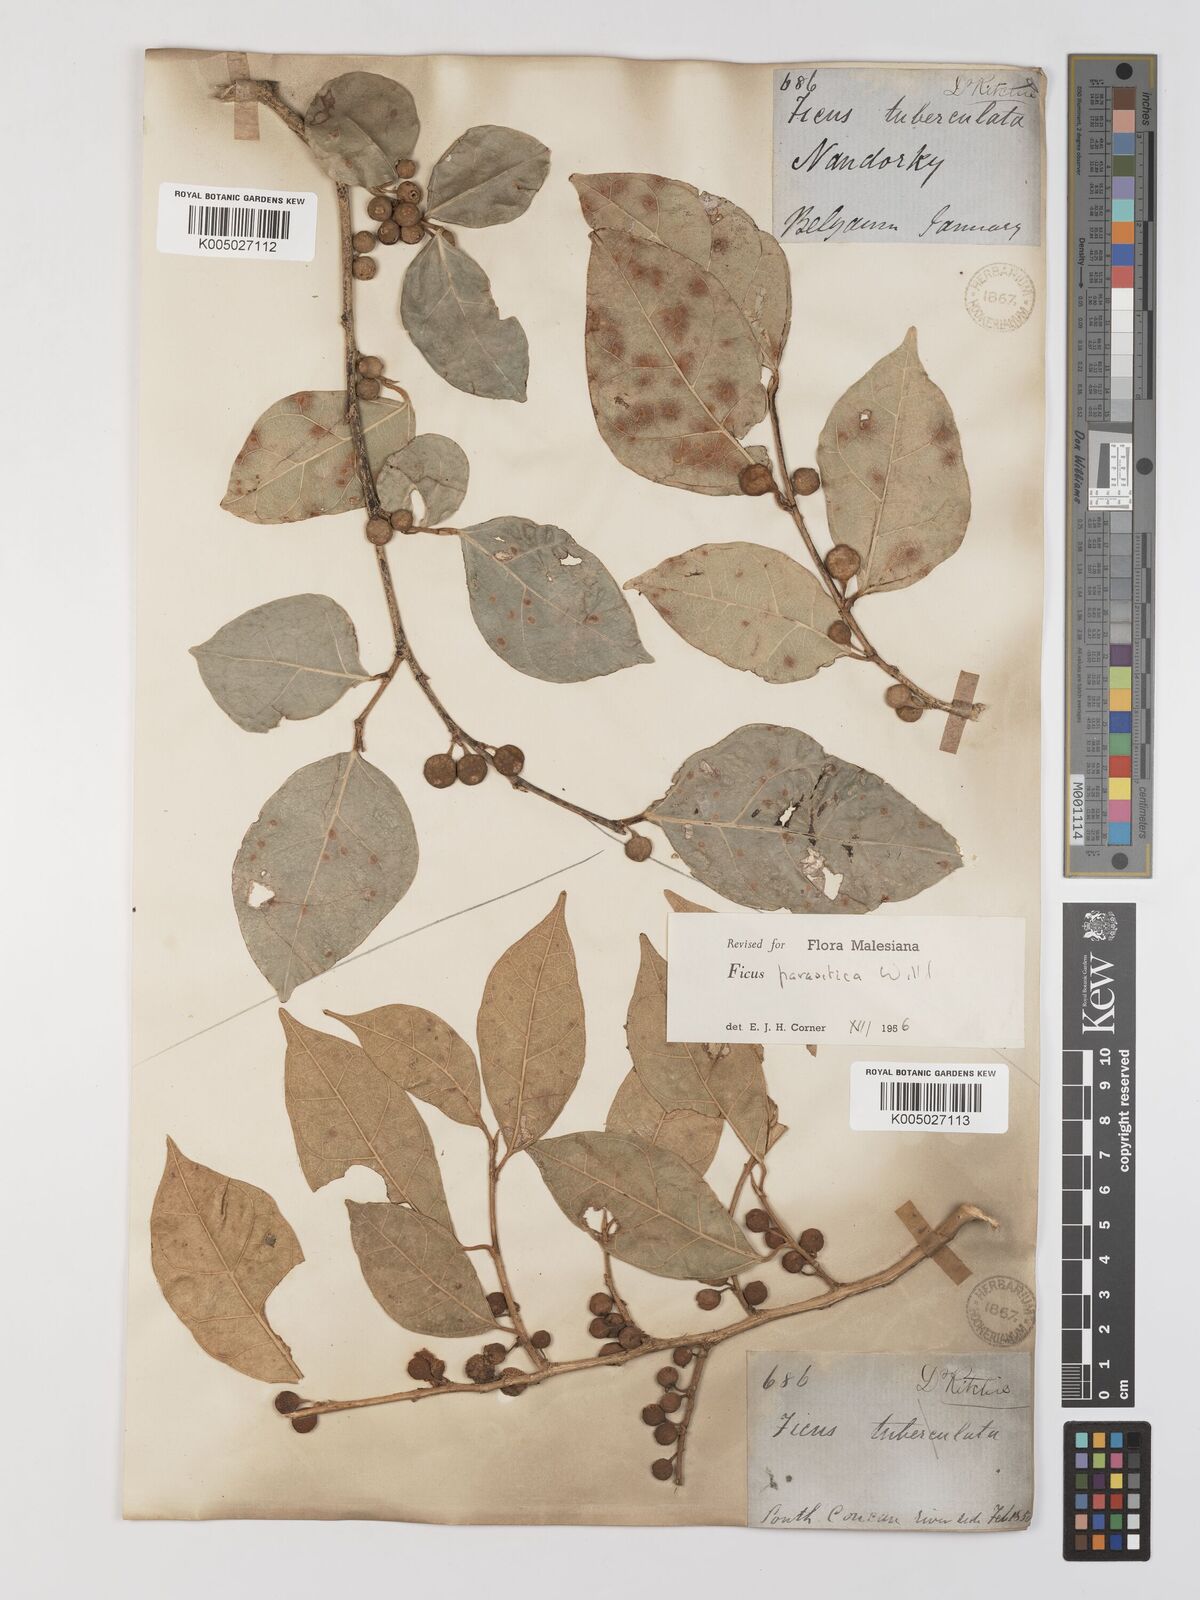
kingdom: Plantae
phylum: Tracheophyta
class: Magnoliopsida
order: Rosales
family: Moraceae
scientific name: Moraceae
